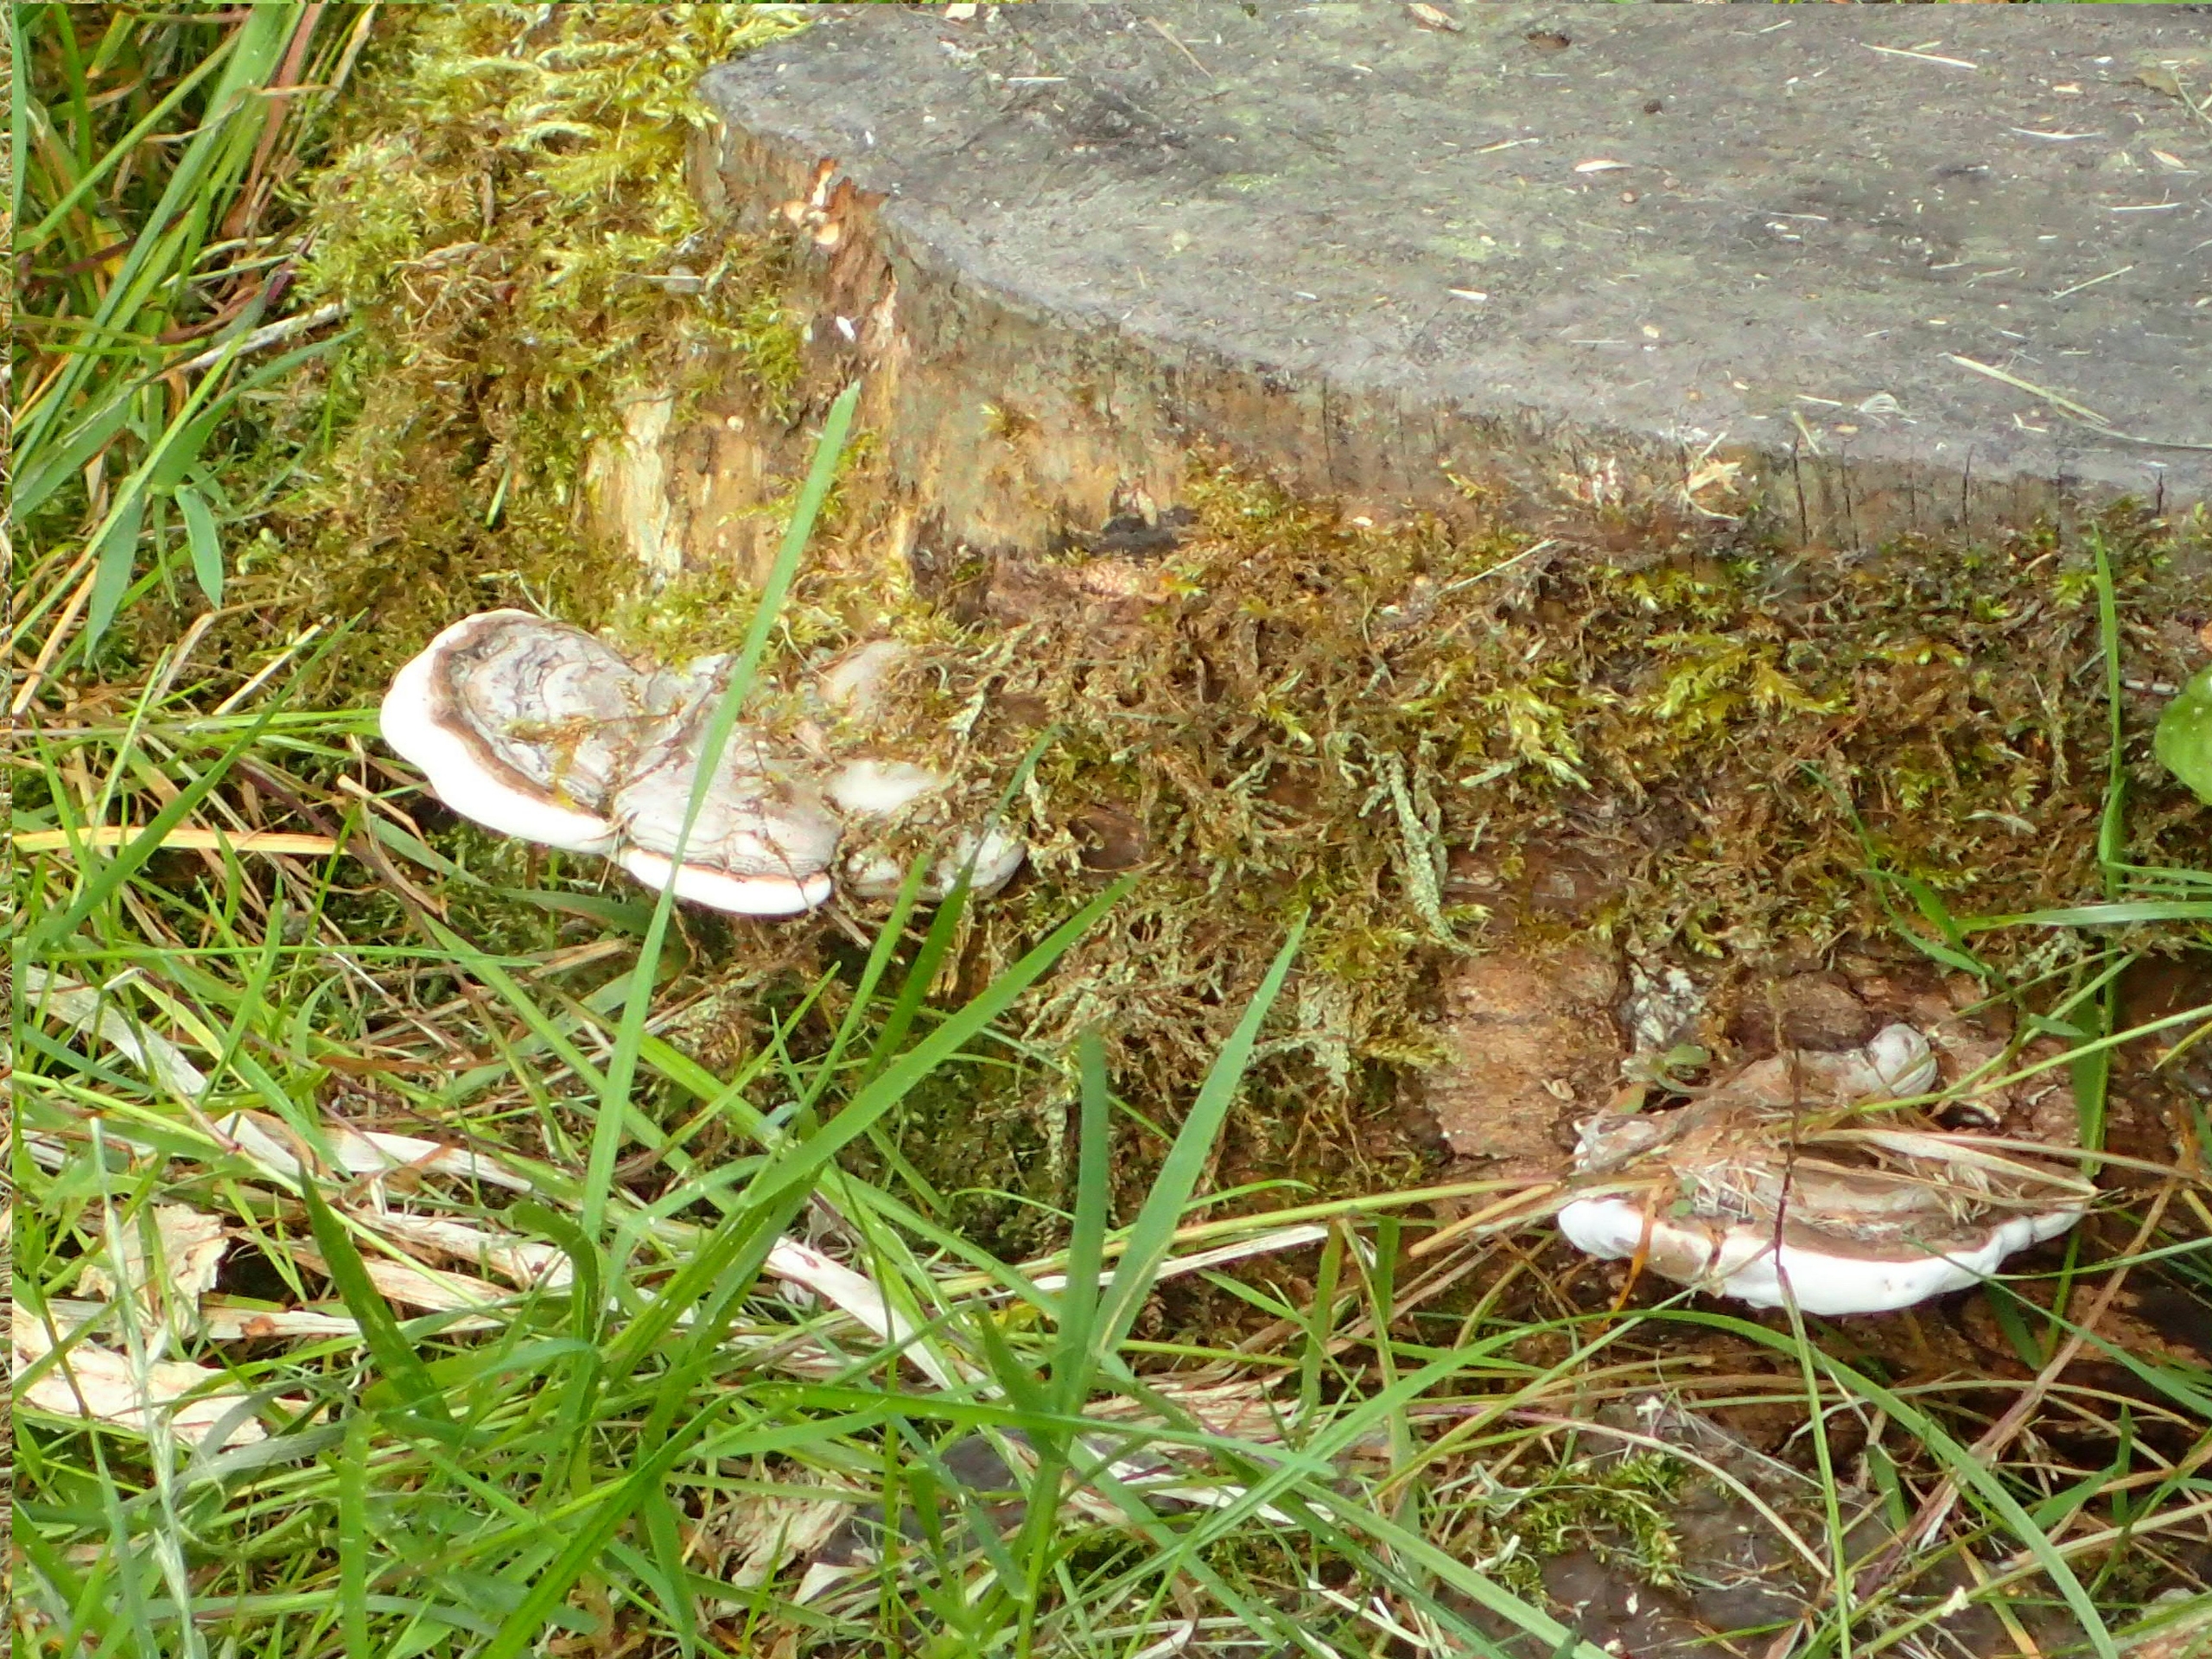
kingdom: Fungi
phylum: Basidiomycota
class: Agaricomycetes
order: Polyporales
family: Polyporaceae
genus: Ganoderma
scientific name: Ganoderma applanatum
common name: Flad lakporesvamp
